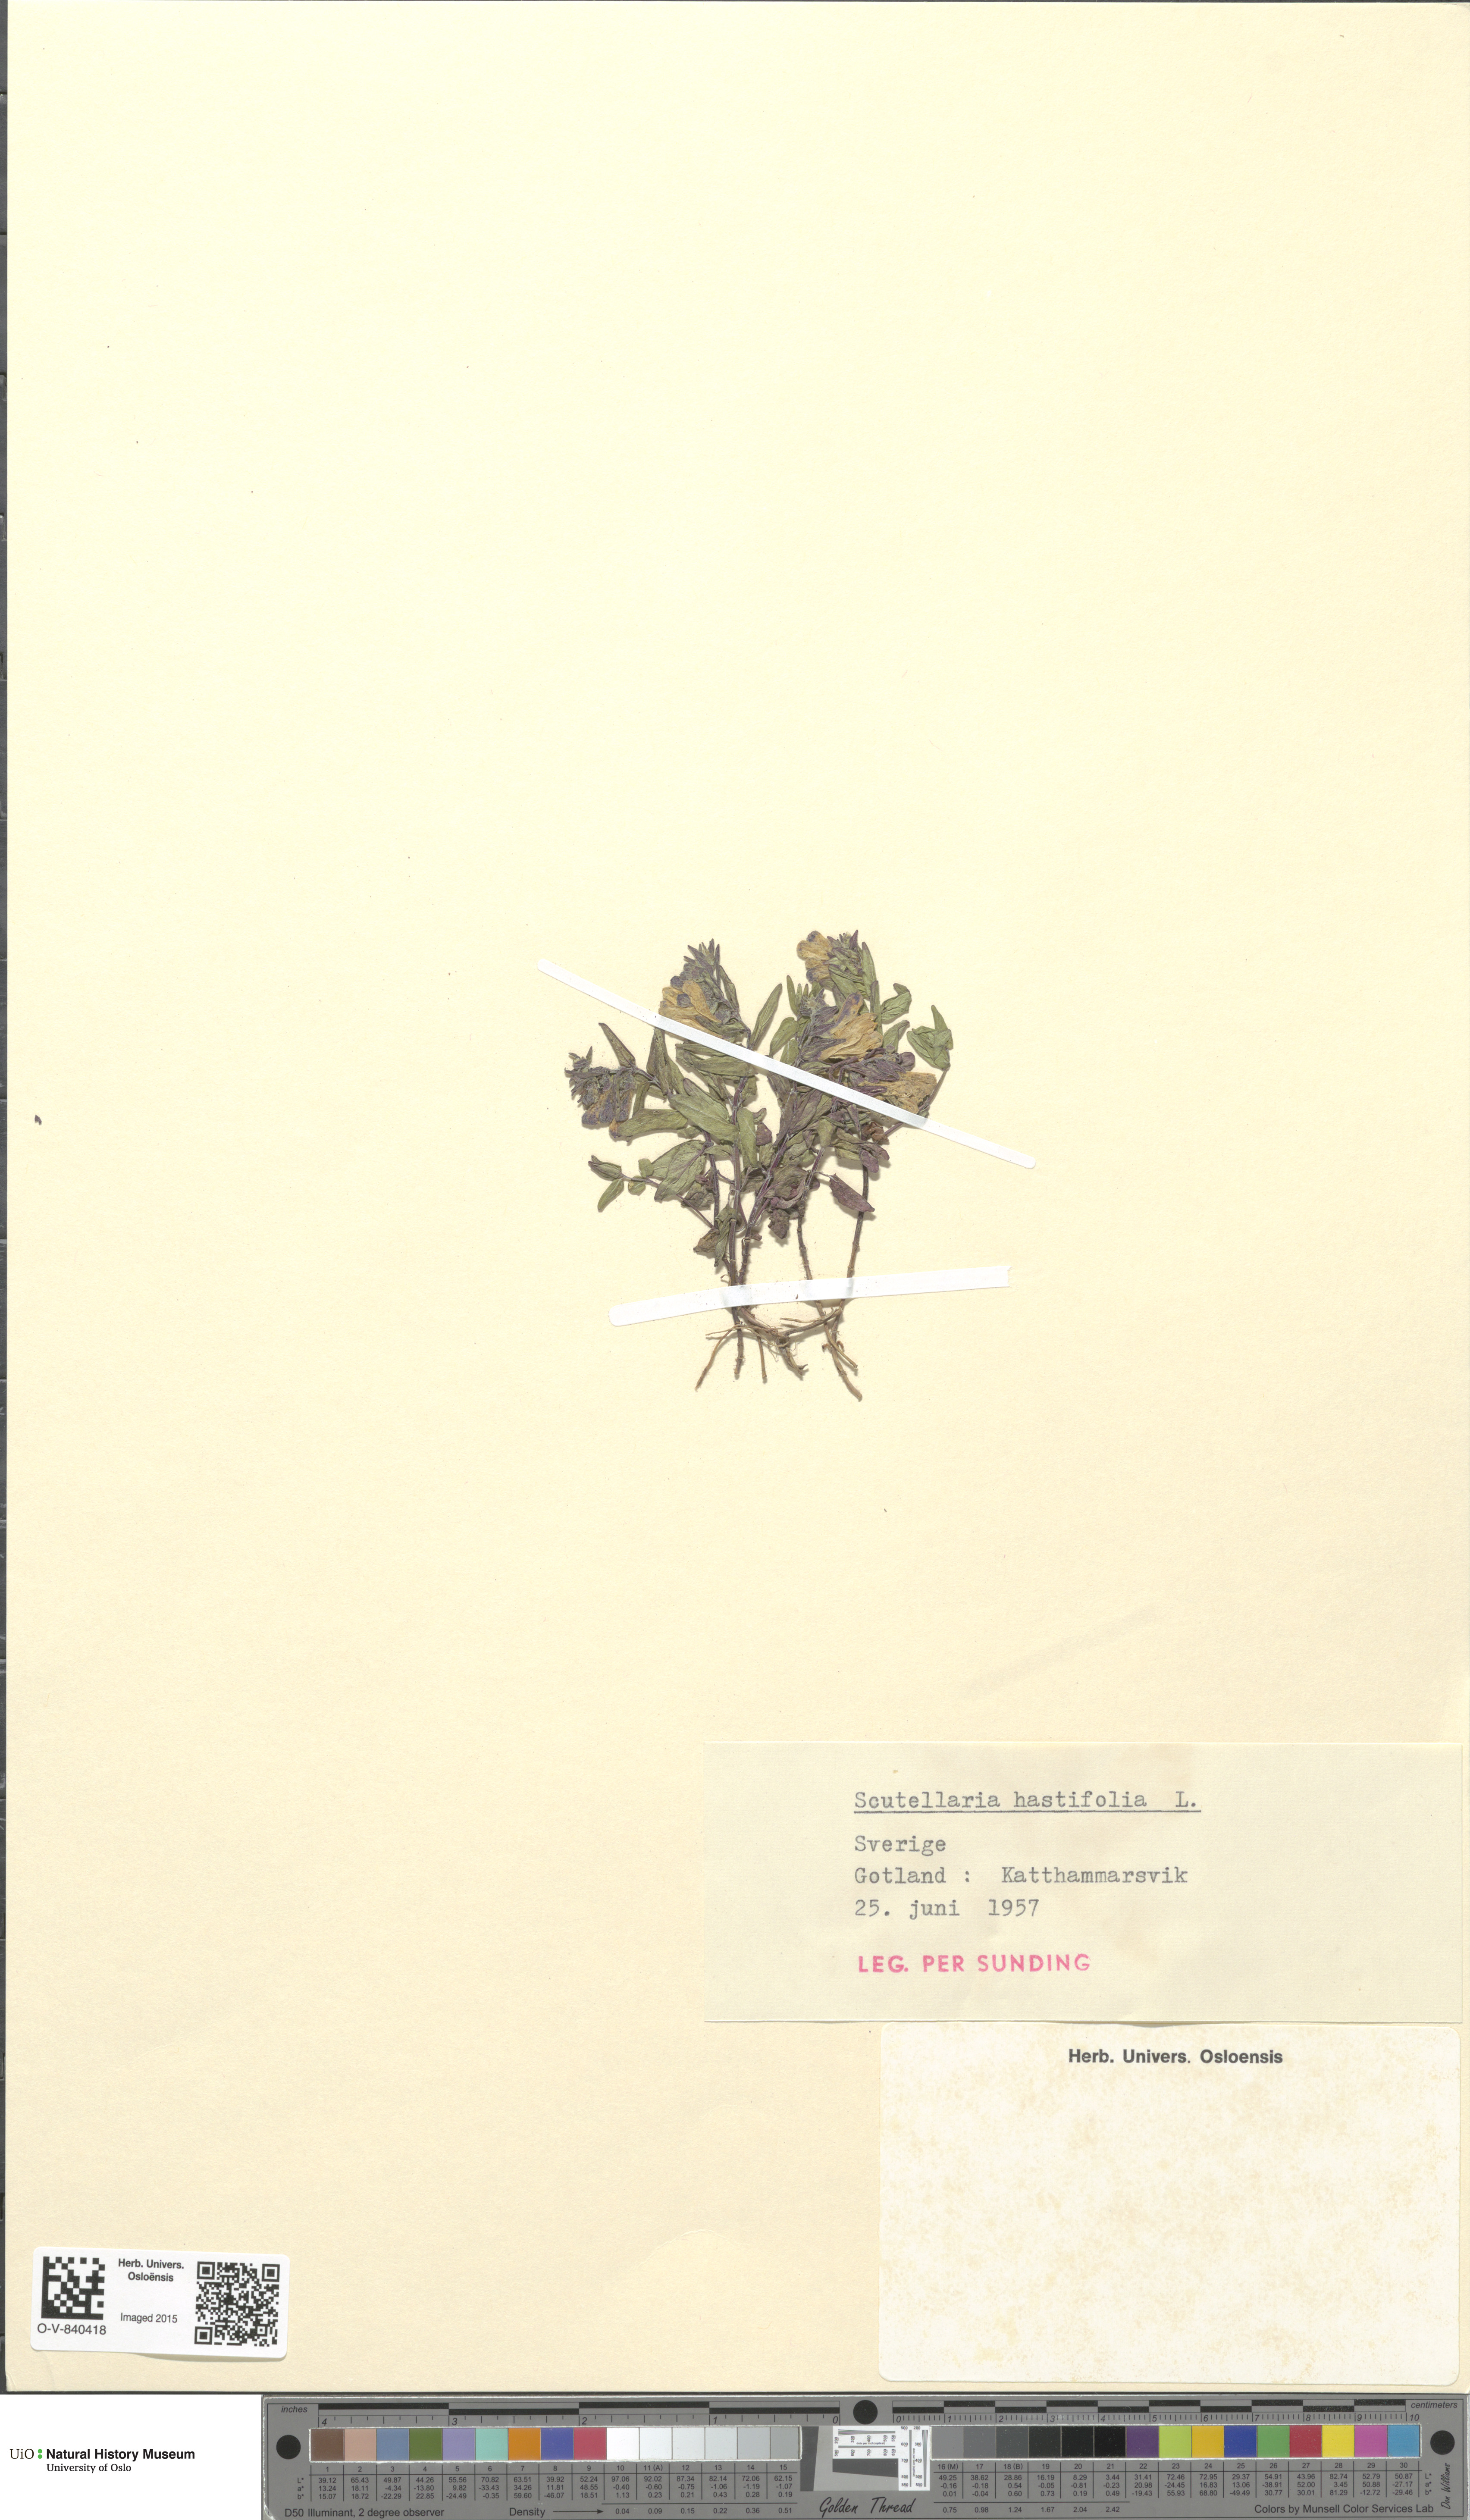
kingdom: Plantae
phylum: Tracheophyta
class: Magnoliopsida
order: Lamiales
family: Lamiaceae
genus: Scutellaria
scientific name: Scutellaria hastifolia
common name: Norfolk skullcap
